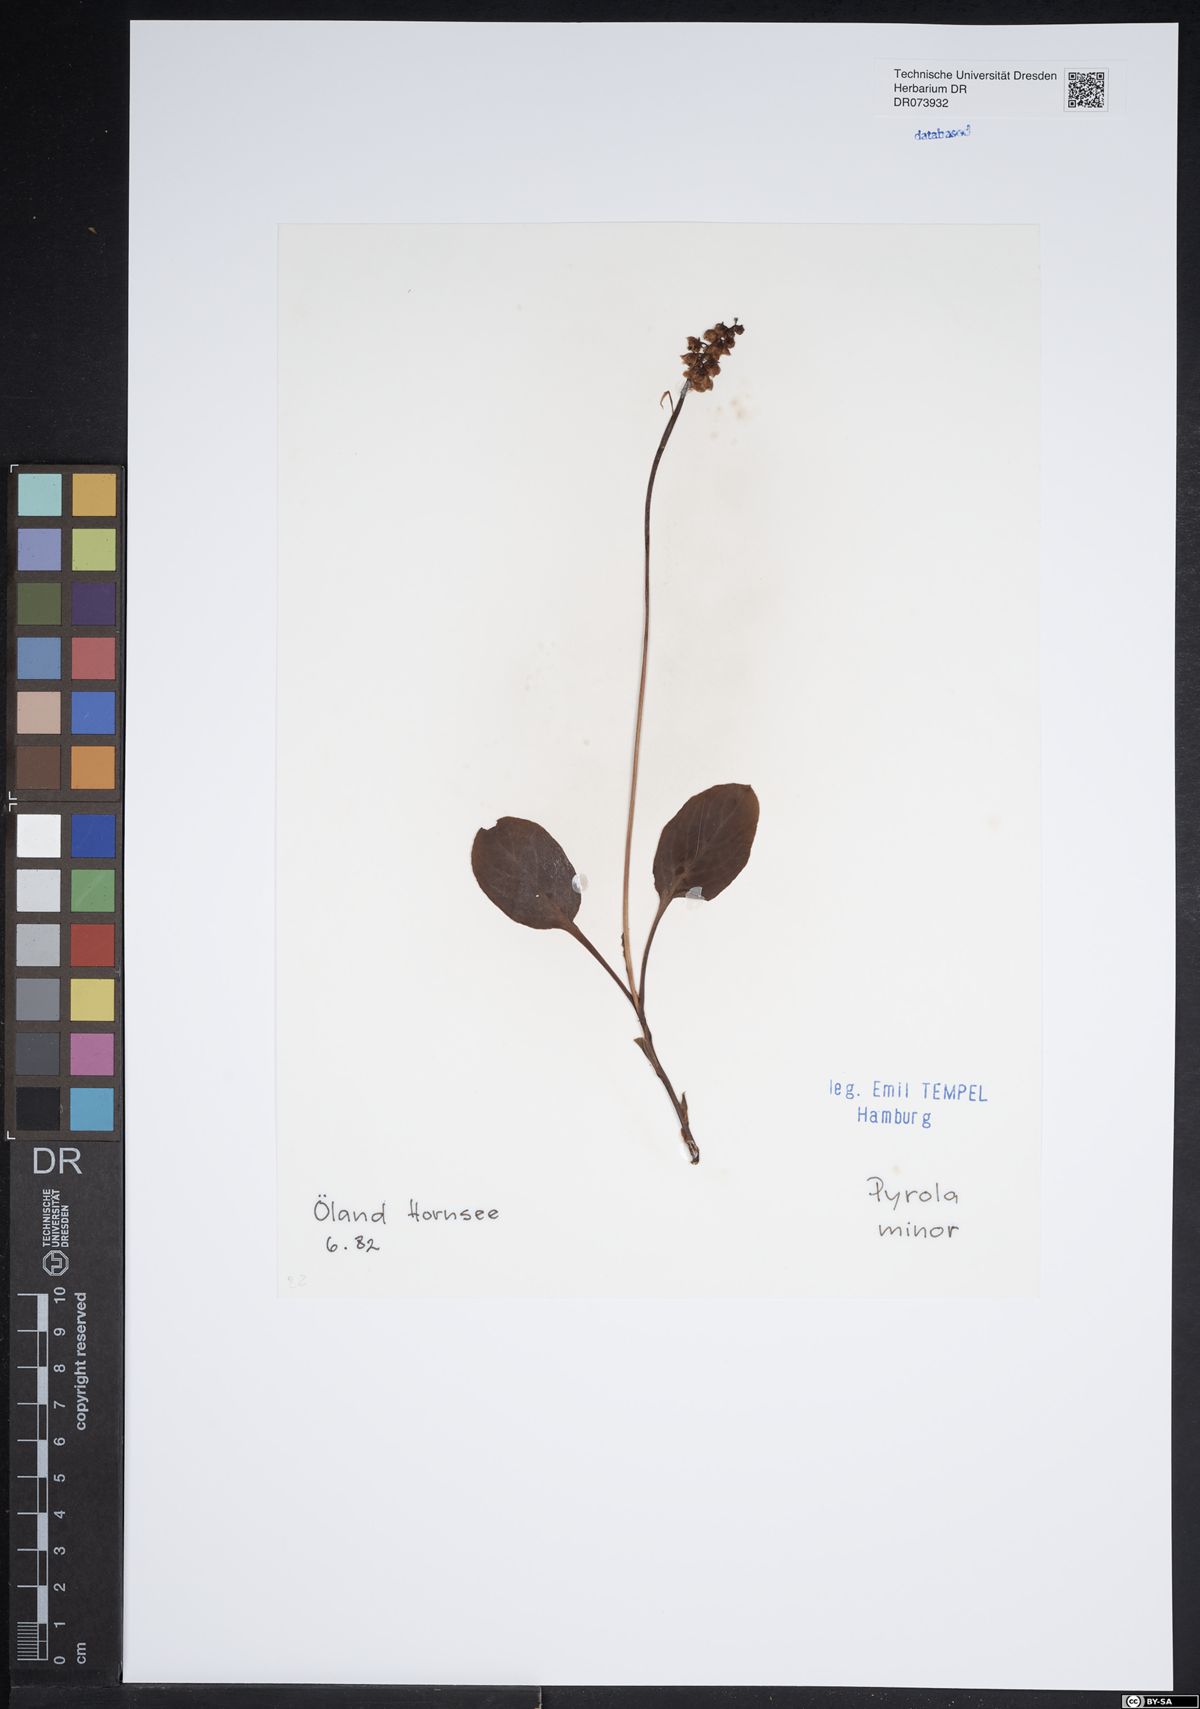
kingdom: Plantae
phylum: Tracheophyta
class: Magnoliopsida
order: Ericales
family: Ericaceae
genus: Pyrola
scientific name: Pyrola minor
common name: Common wintergreen
